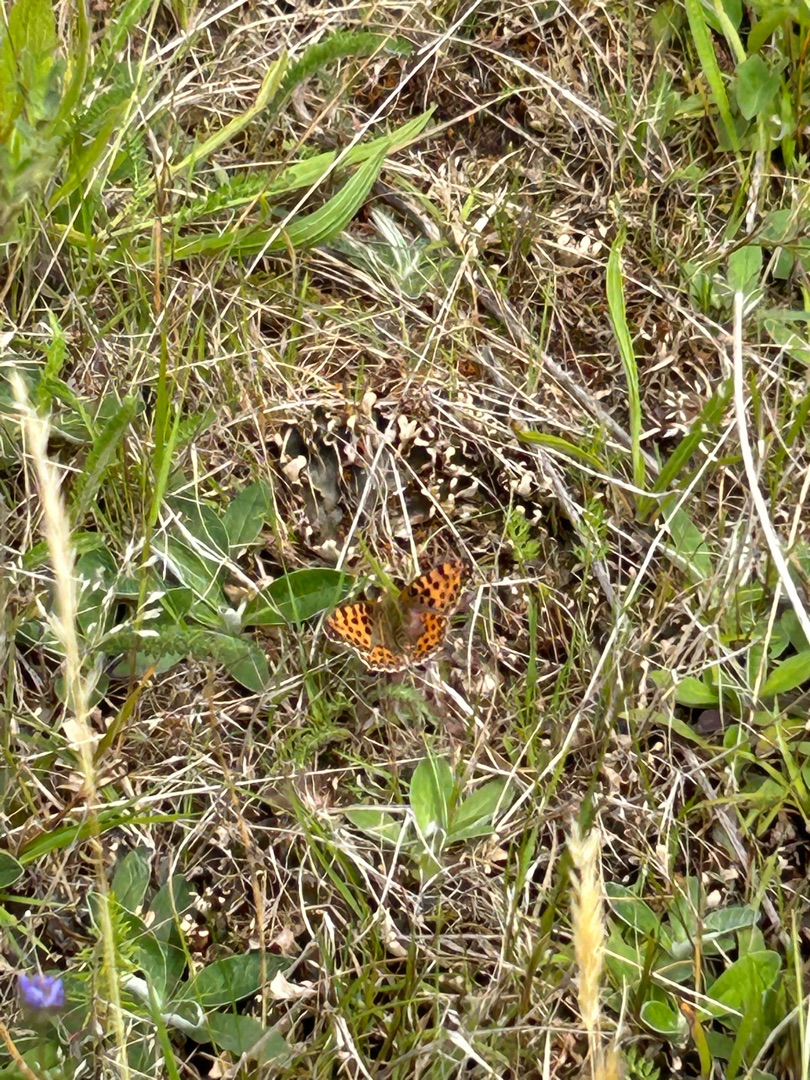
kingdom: Animalia
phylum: Arthropoda
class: Insecta
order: Lepidoptera
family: Nymphalidae
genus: Issoria
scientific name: Issoria lathonia
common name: Storplettet perlemorsommerfugl
